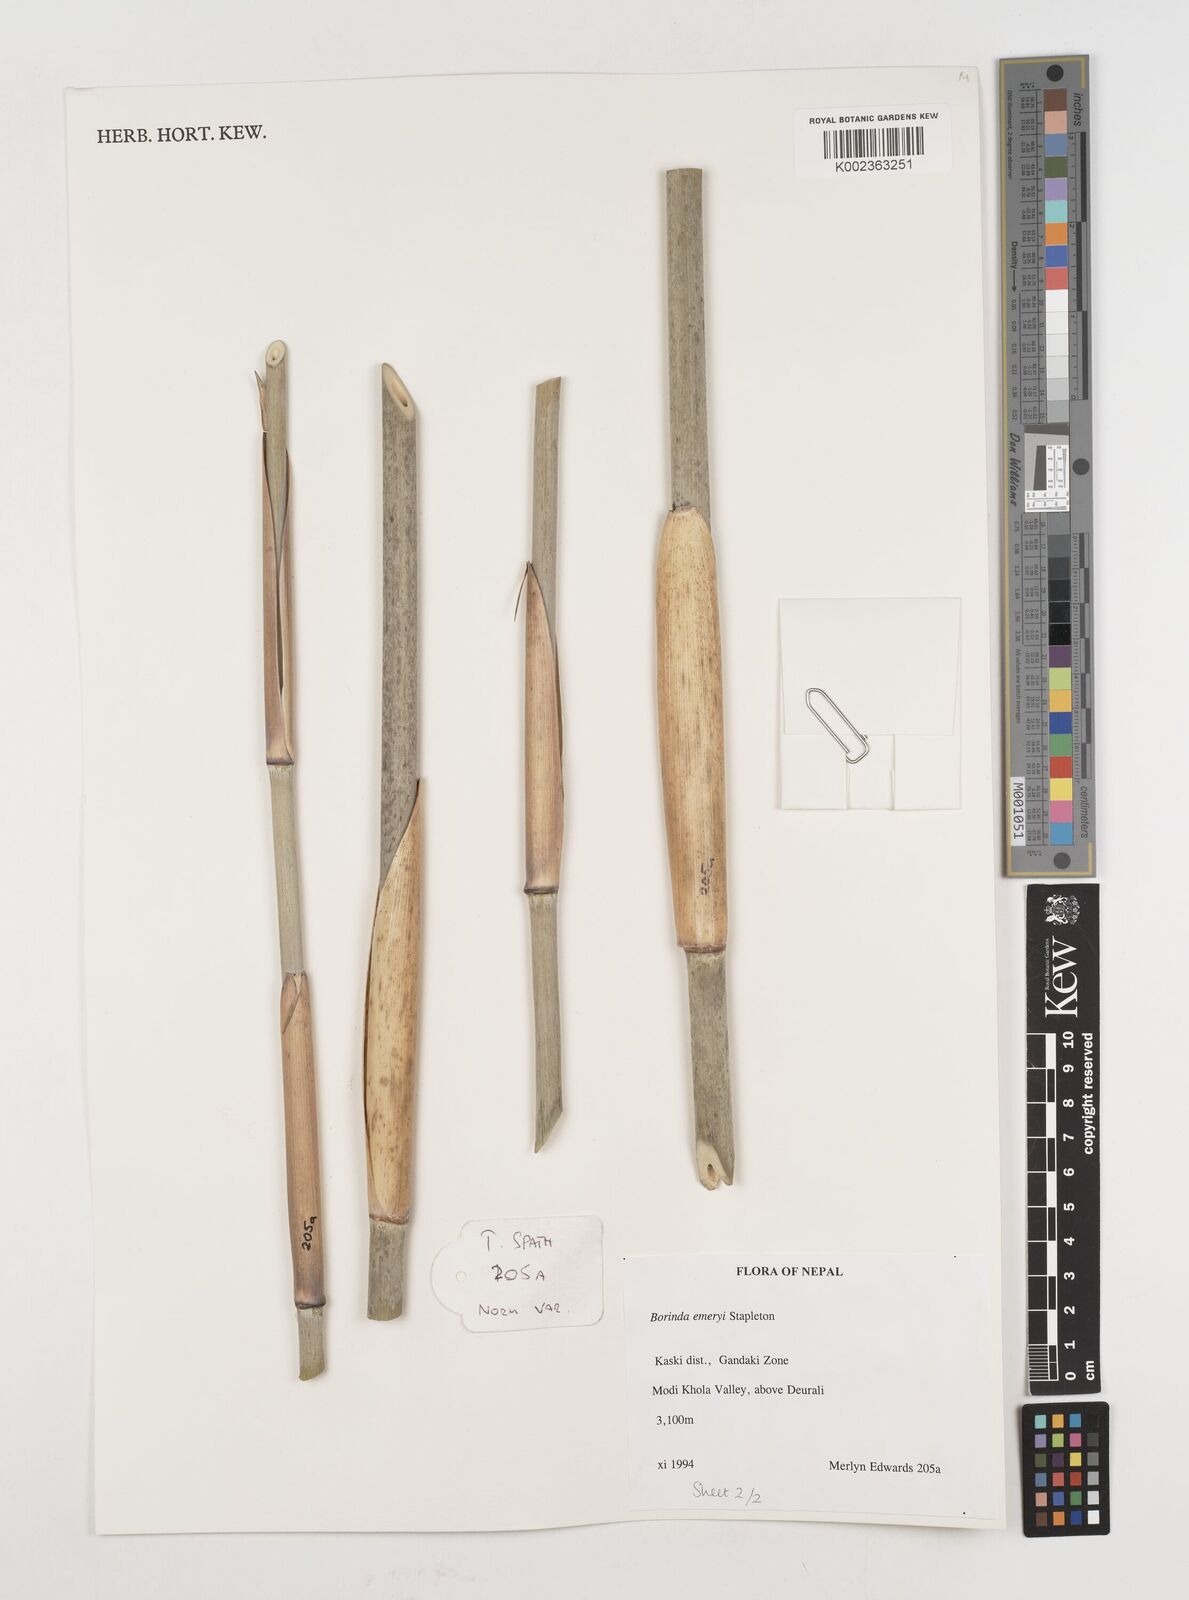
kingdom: Plantae
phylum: Tracheophyta
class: Liliopsida
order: Poales
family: Poaceae
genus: Fargesia
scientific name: Fargesia
